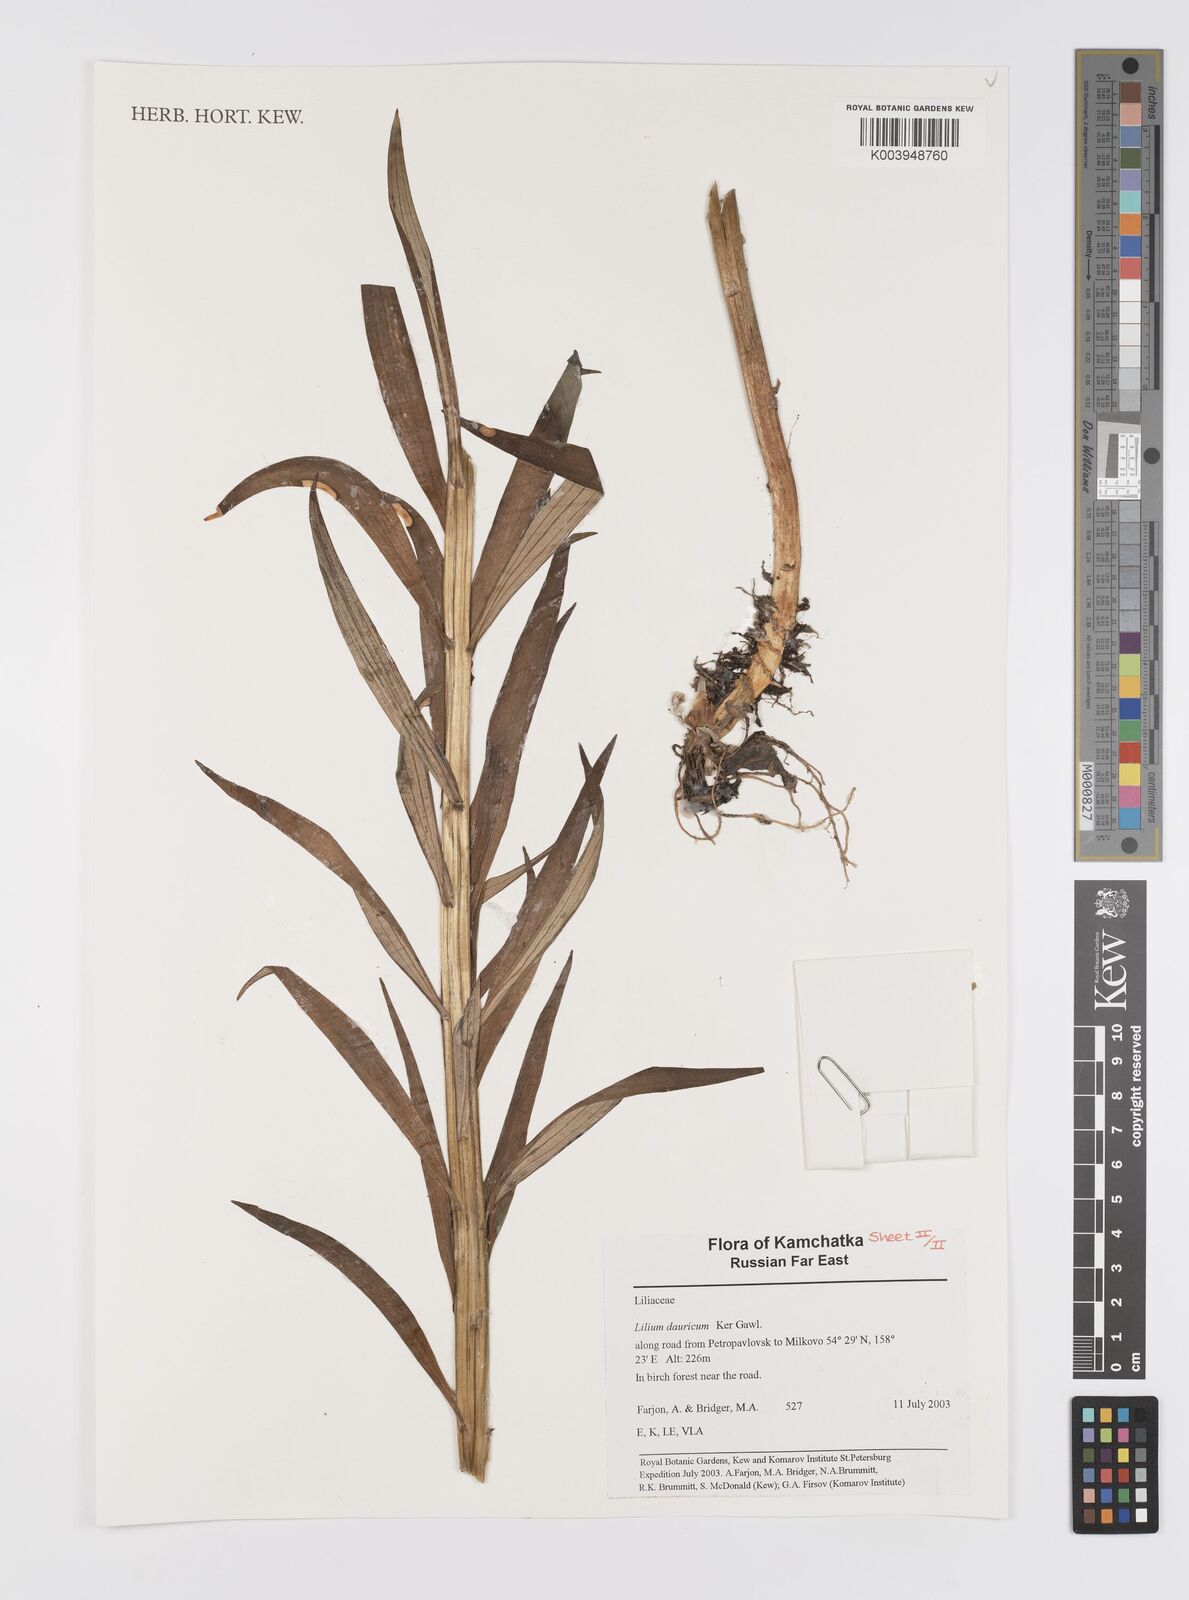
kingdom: Plantae
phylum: Tracheophyta
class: Liliopsida
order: Liliales
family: Liliaceae
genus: Lilium
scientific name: Lilium pensylvanicum
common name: Candlestick lily
